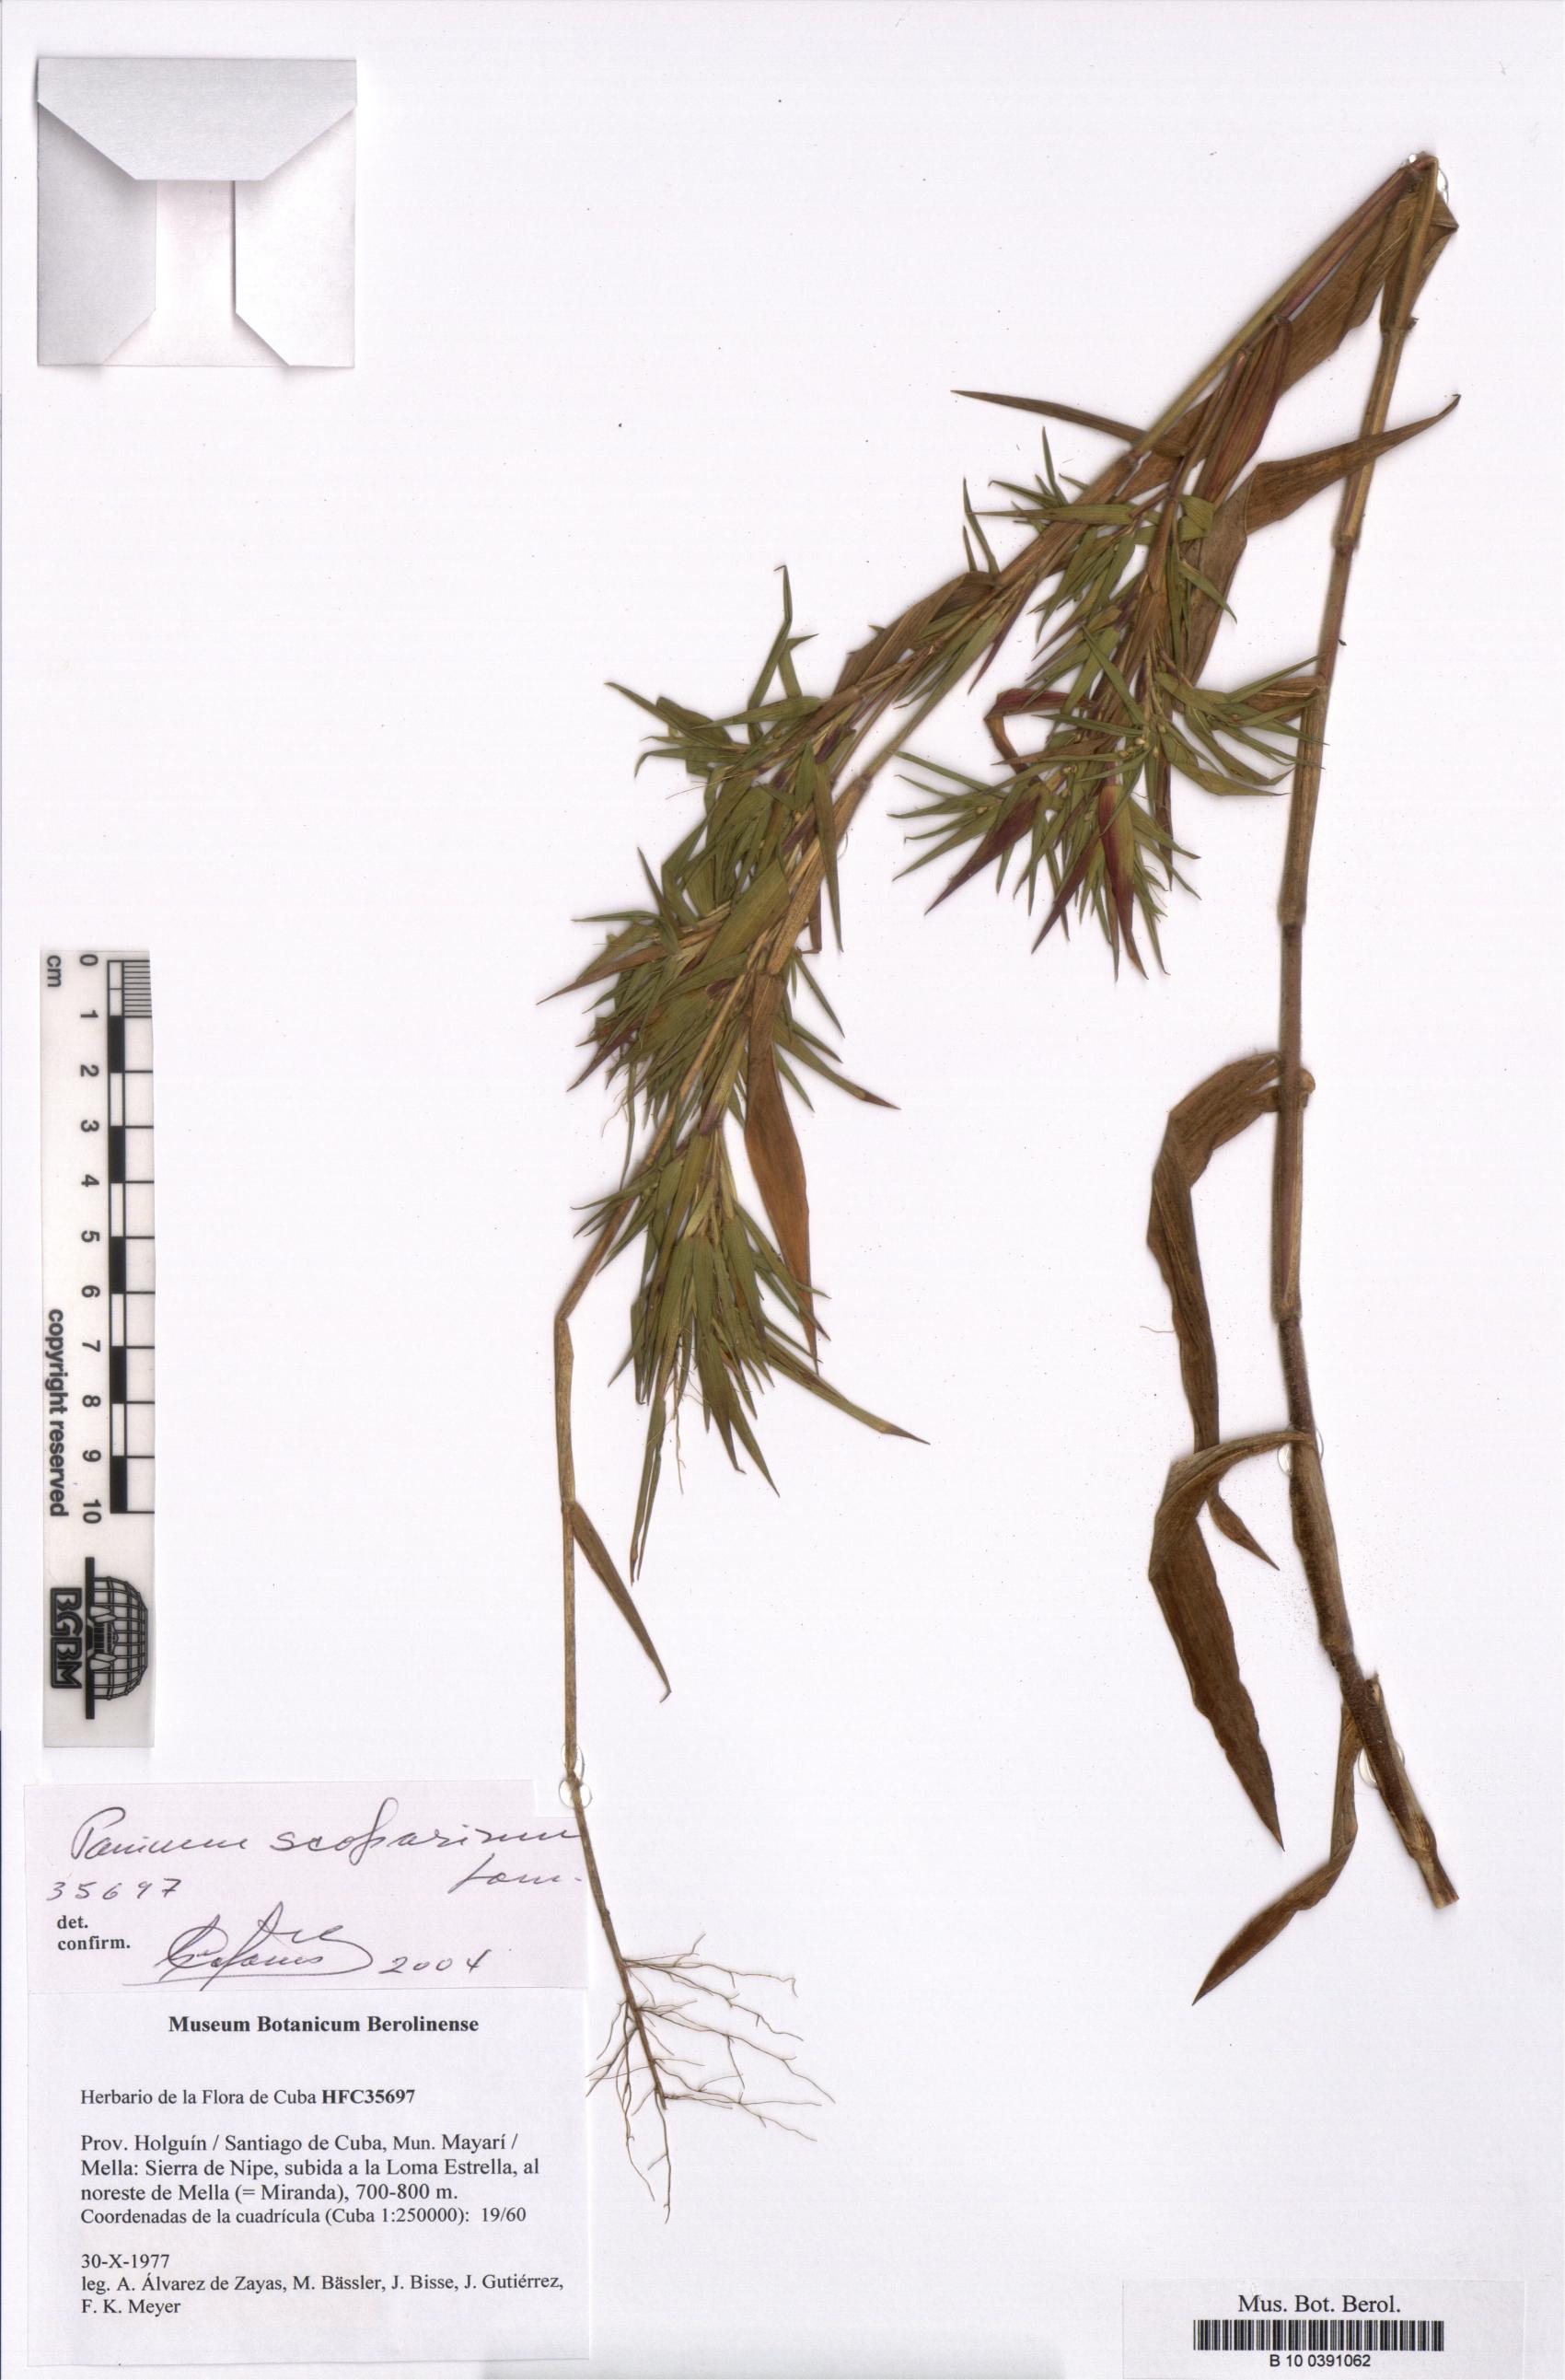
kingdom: Plantae
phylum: Tracheophyta
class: Liliopsida
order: Poales
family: Poaceae
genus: Dichanthelium
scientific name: Dichanthelium scoparium
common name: Velvety panic grass
